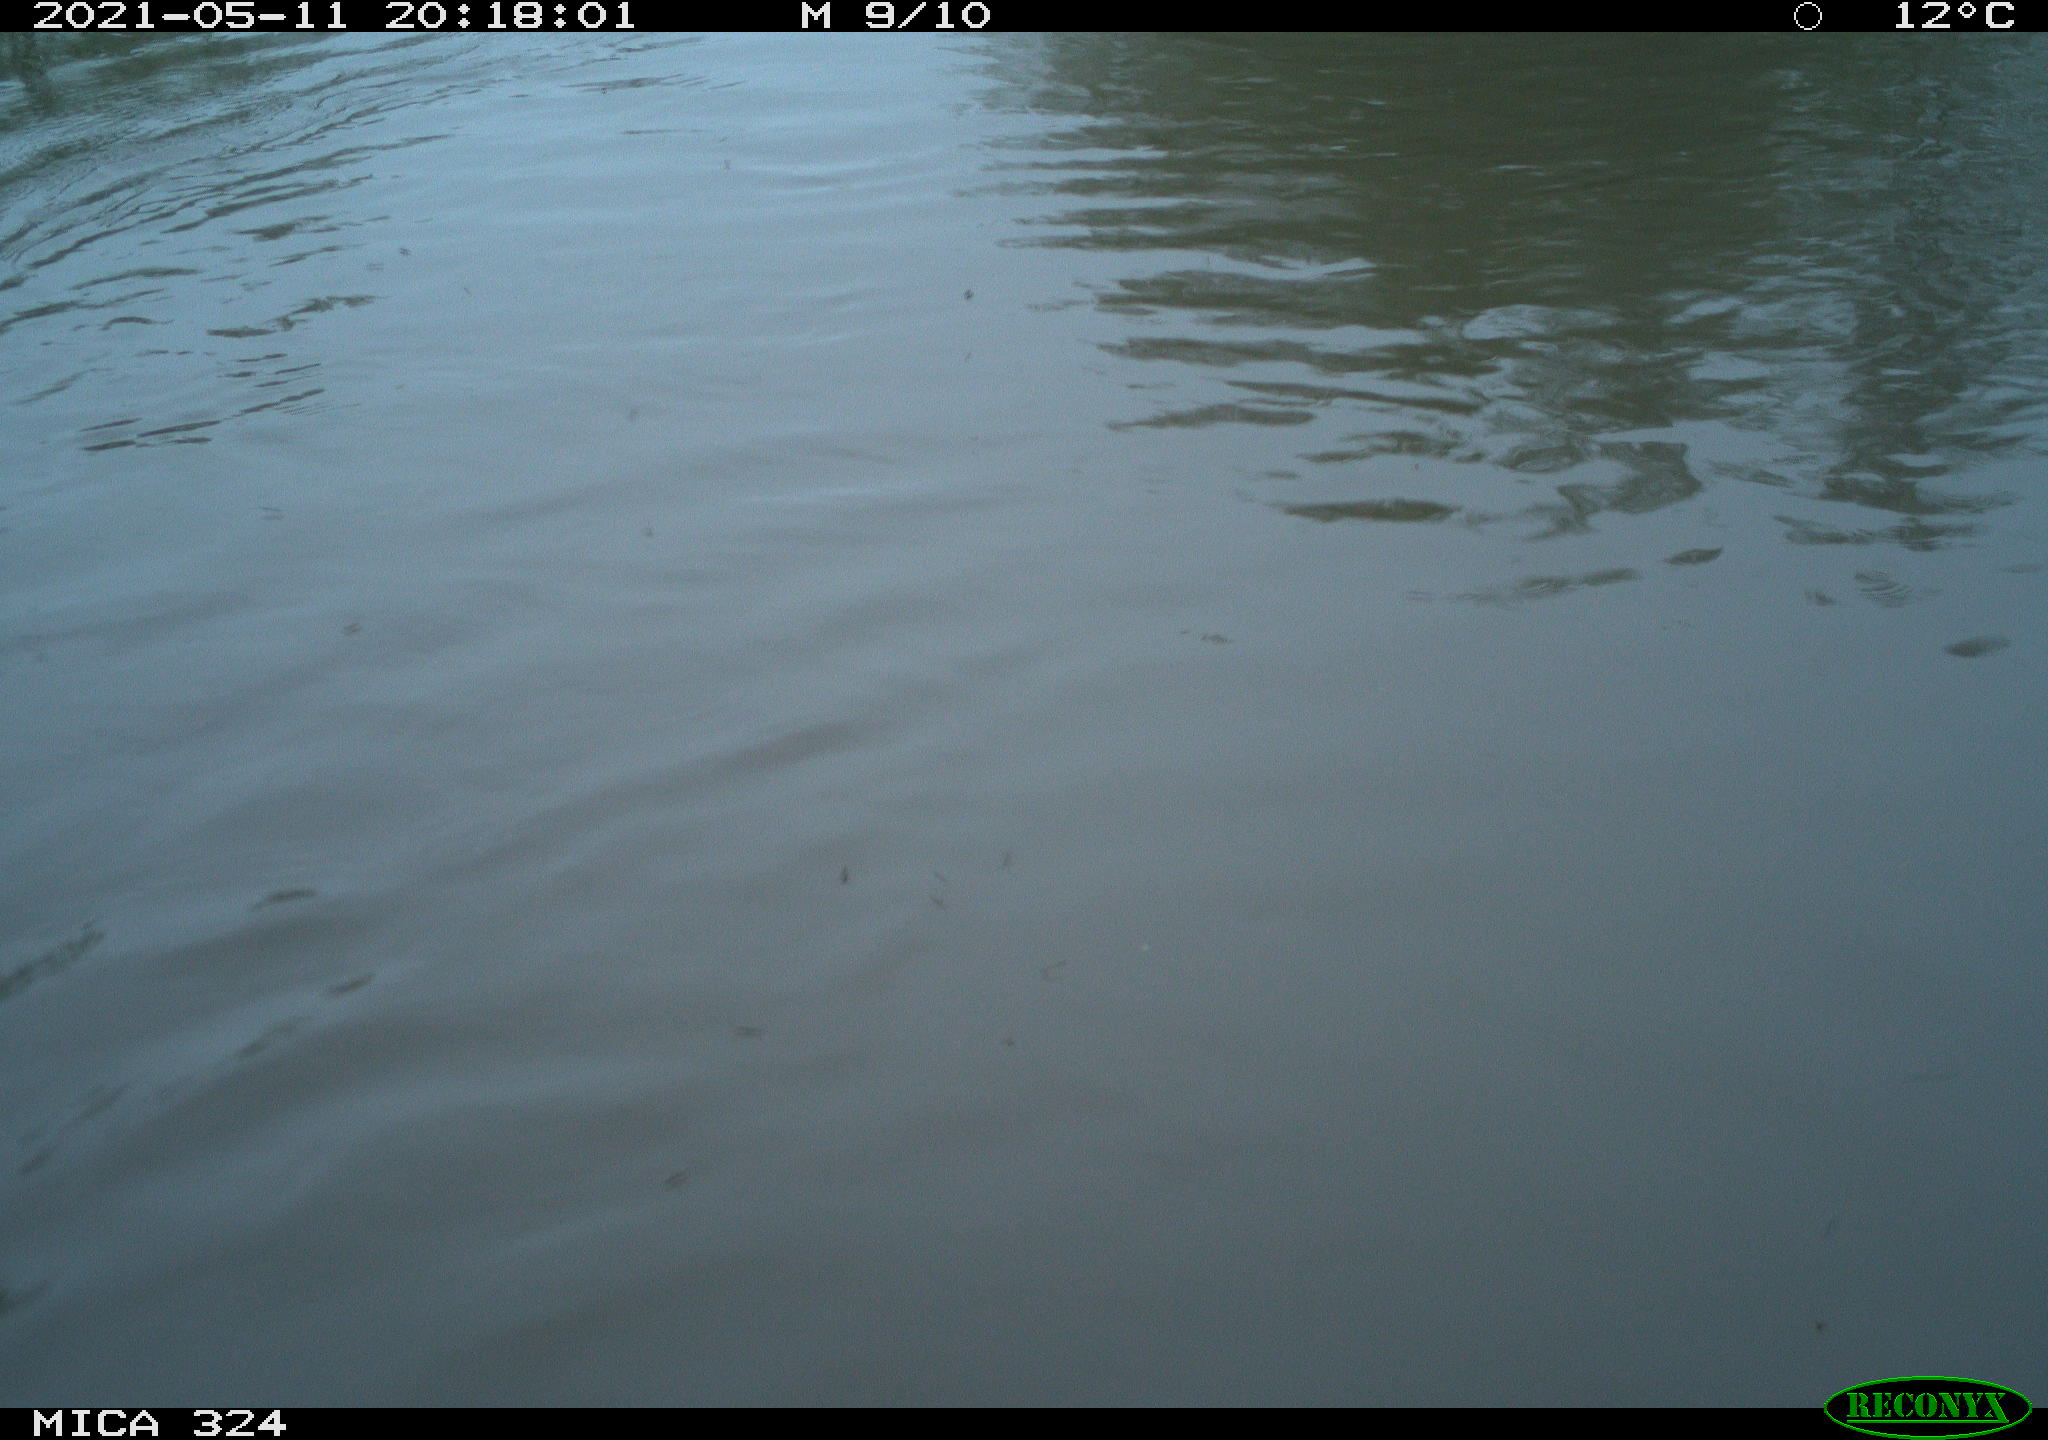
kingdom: Animalia
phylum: Chordata
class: Aves
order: Anseriformes
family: Anatidae
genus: Anas
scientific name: Anas platyrhynchos
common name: Mallard
